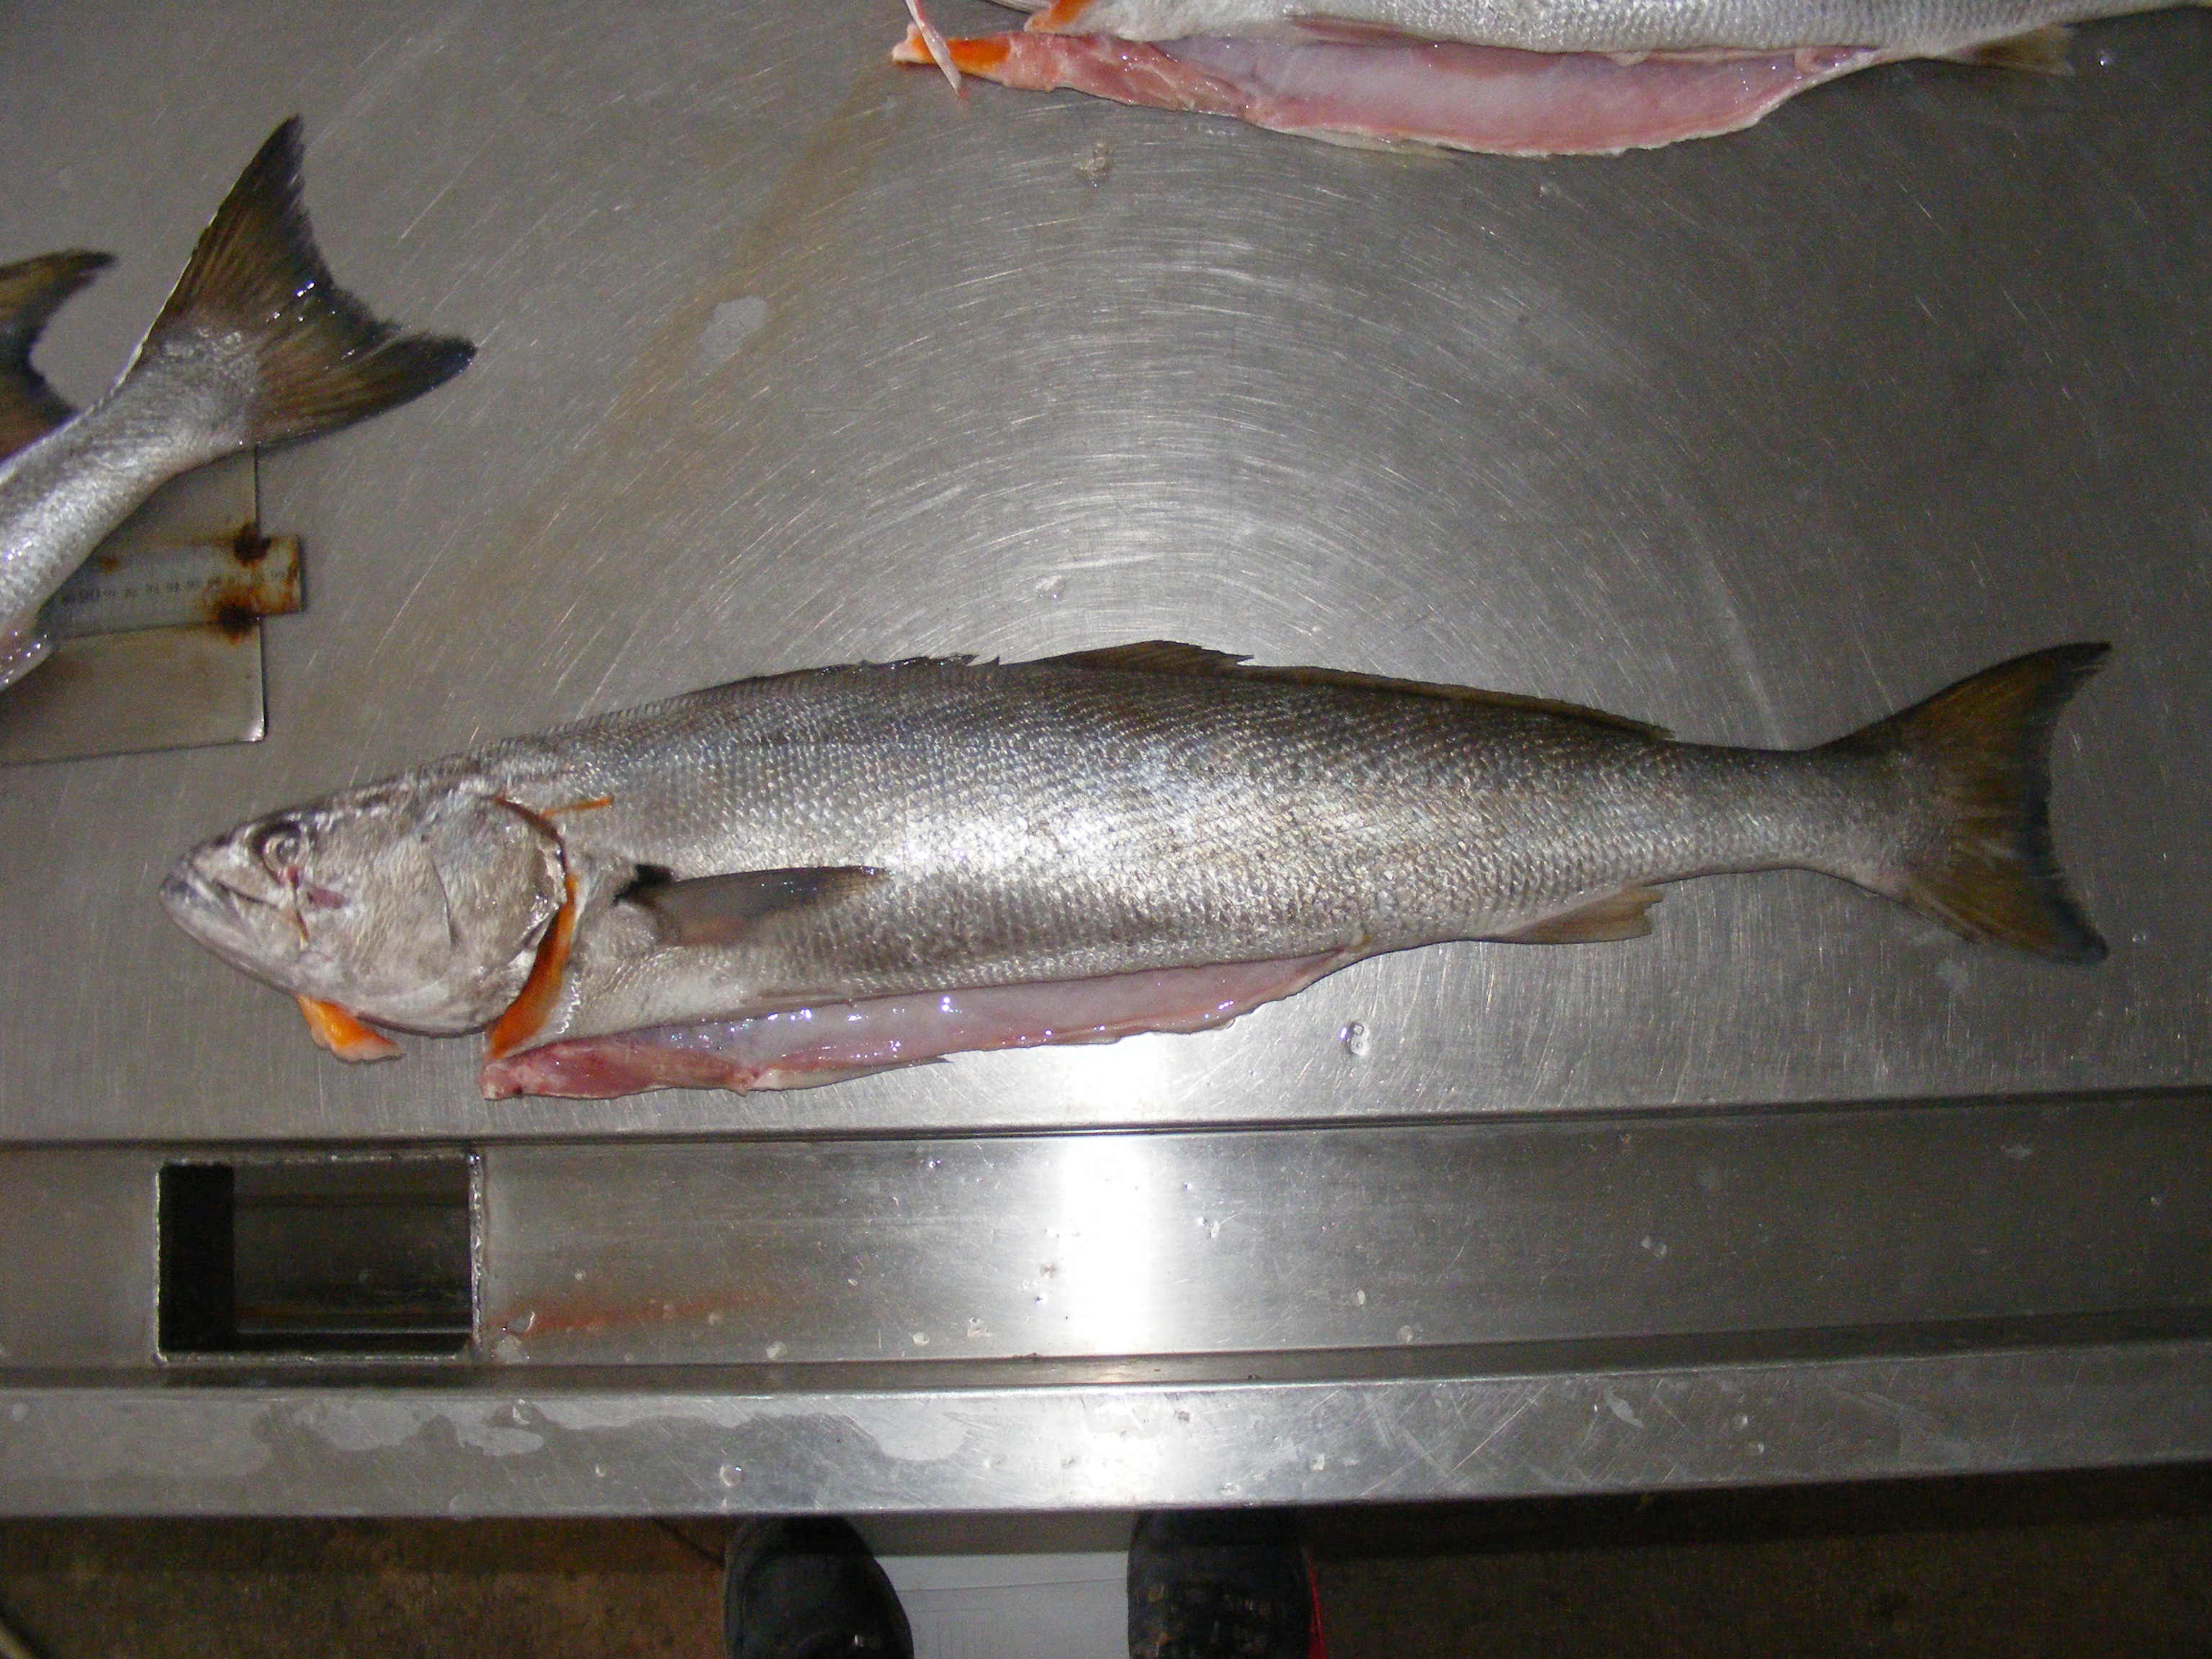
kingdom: Animalia
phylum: Chordata
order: Perciformes
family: Sciaenidae
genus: Atractoscion
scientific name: Atractoscion aequidens
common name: Geelbeck croaker
